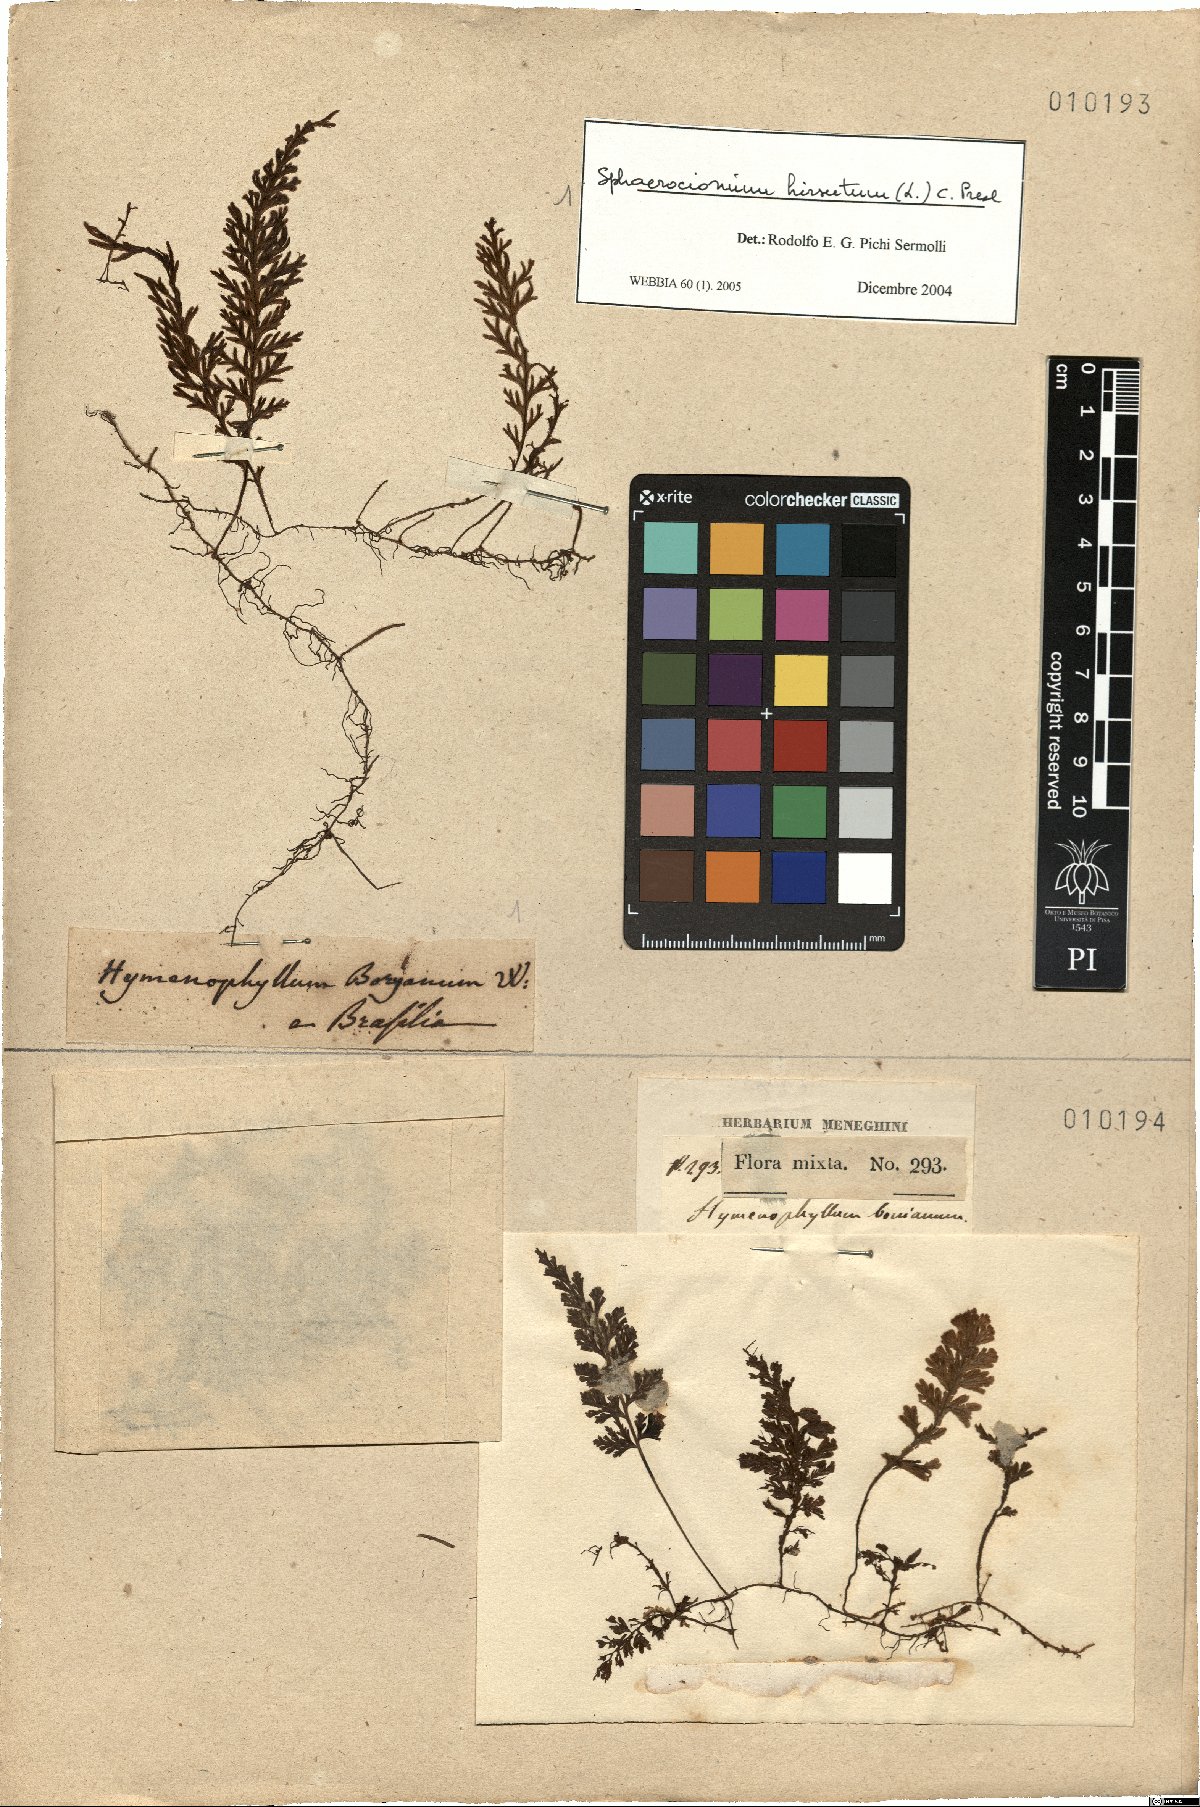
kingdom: Plantae
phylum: Tracheophyta
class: Polypodiopsida
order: Hymenophyllales
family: Hymenophyllaceae
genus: Hymenophyllum
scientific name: Hymenophyllum hirsutum
